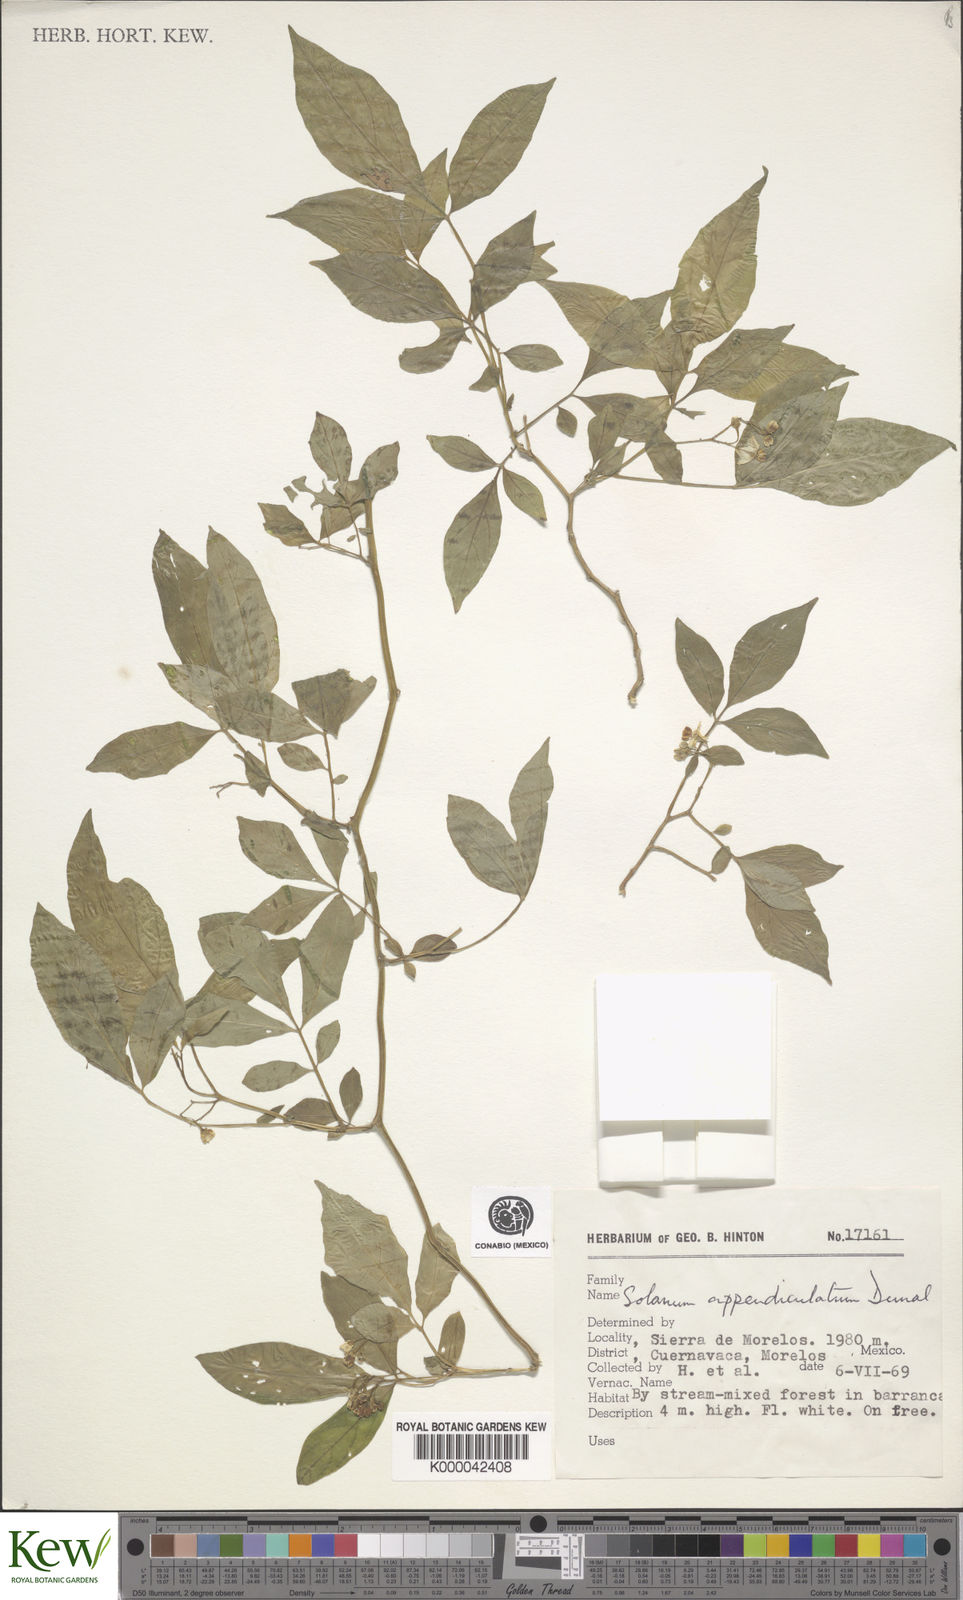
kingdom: Plantae
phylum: Tracheophyta
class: Magnoliopsida
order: Solanales
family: Solanaceae
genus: Solanum
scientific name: Solanum appendiculatum
